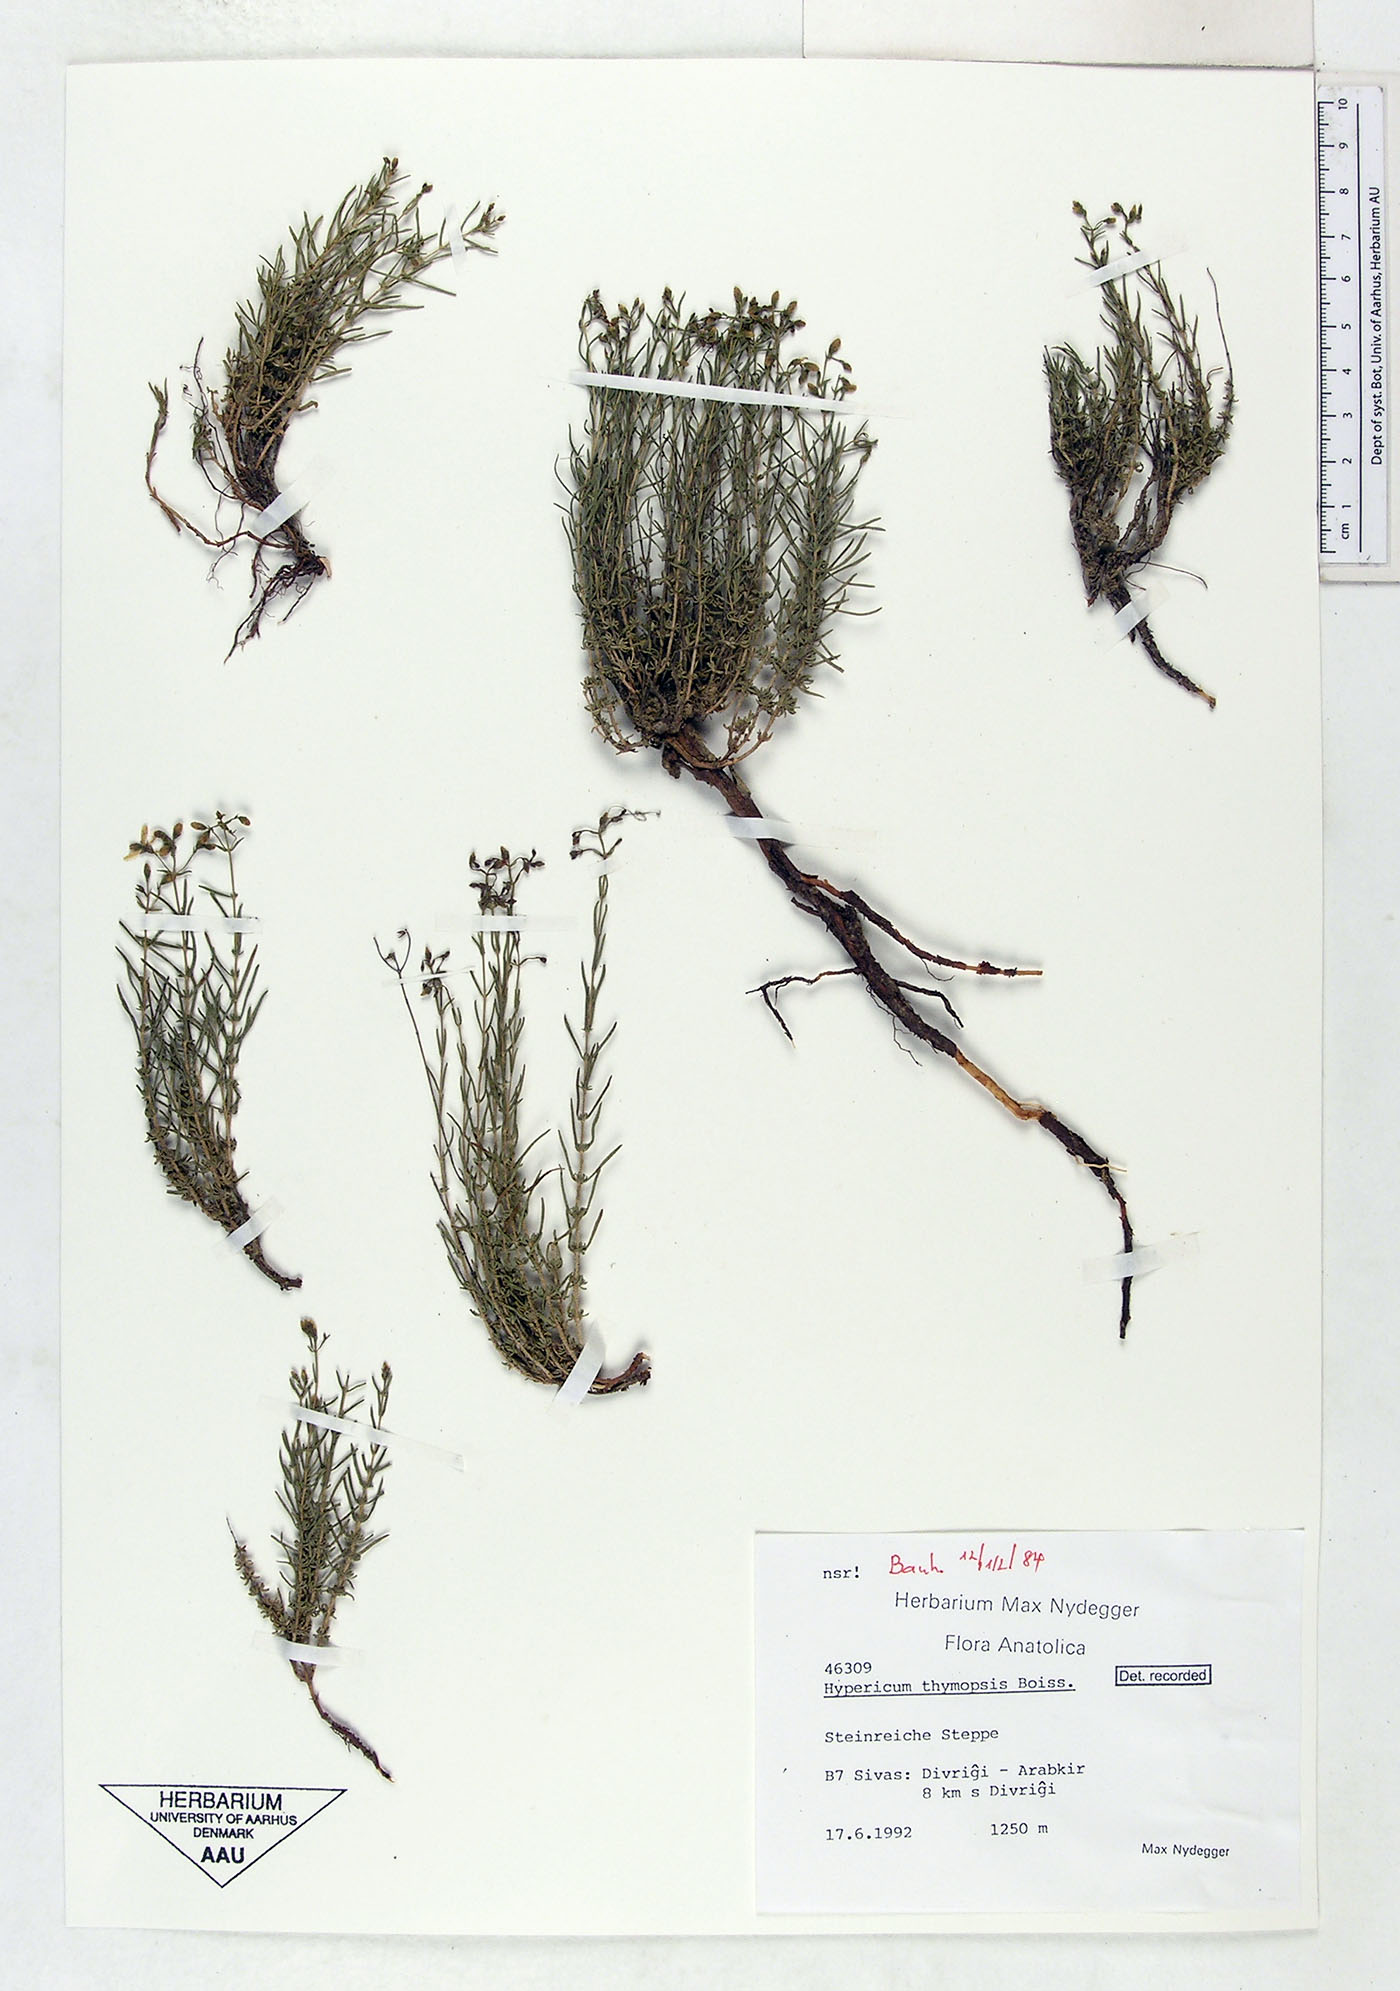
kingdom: Plantae
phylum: Tracheophyta
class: Magnoliopsida
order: Malpighiales
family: Hypericaceae
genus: Hypericum
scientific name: Hypericum thymopsis
